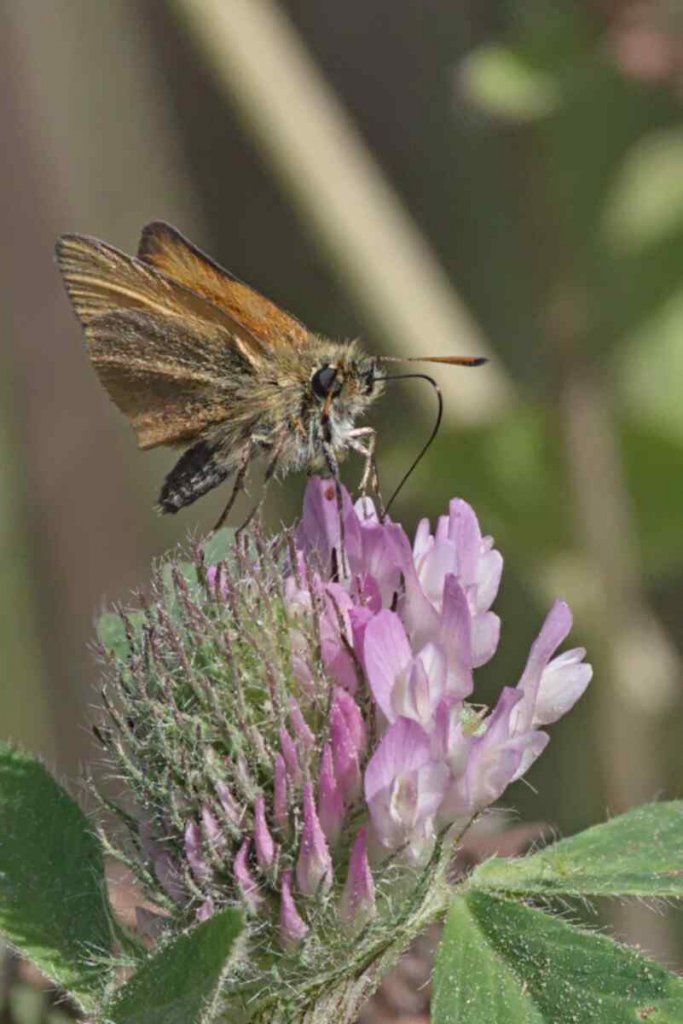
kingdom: Animalia
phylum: Arthropoda
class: Insecta
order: Lepidoptera
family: Hesperiidae
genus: Thymelicus
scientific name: Thymelicus lineola
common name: European Skipper
